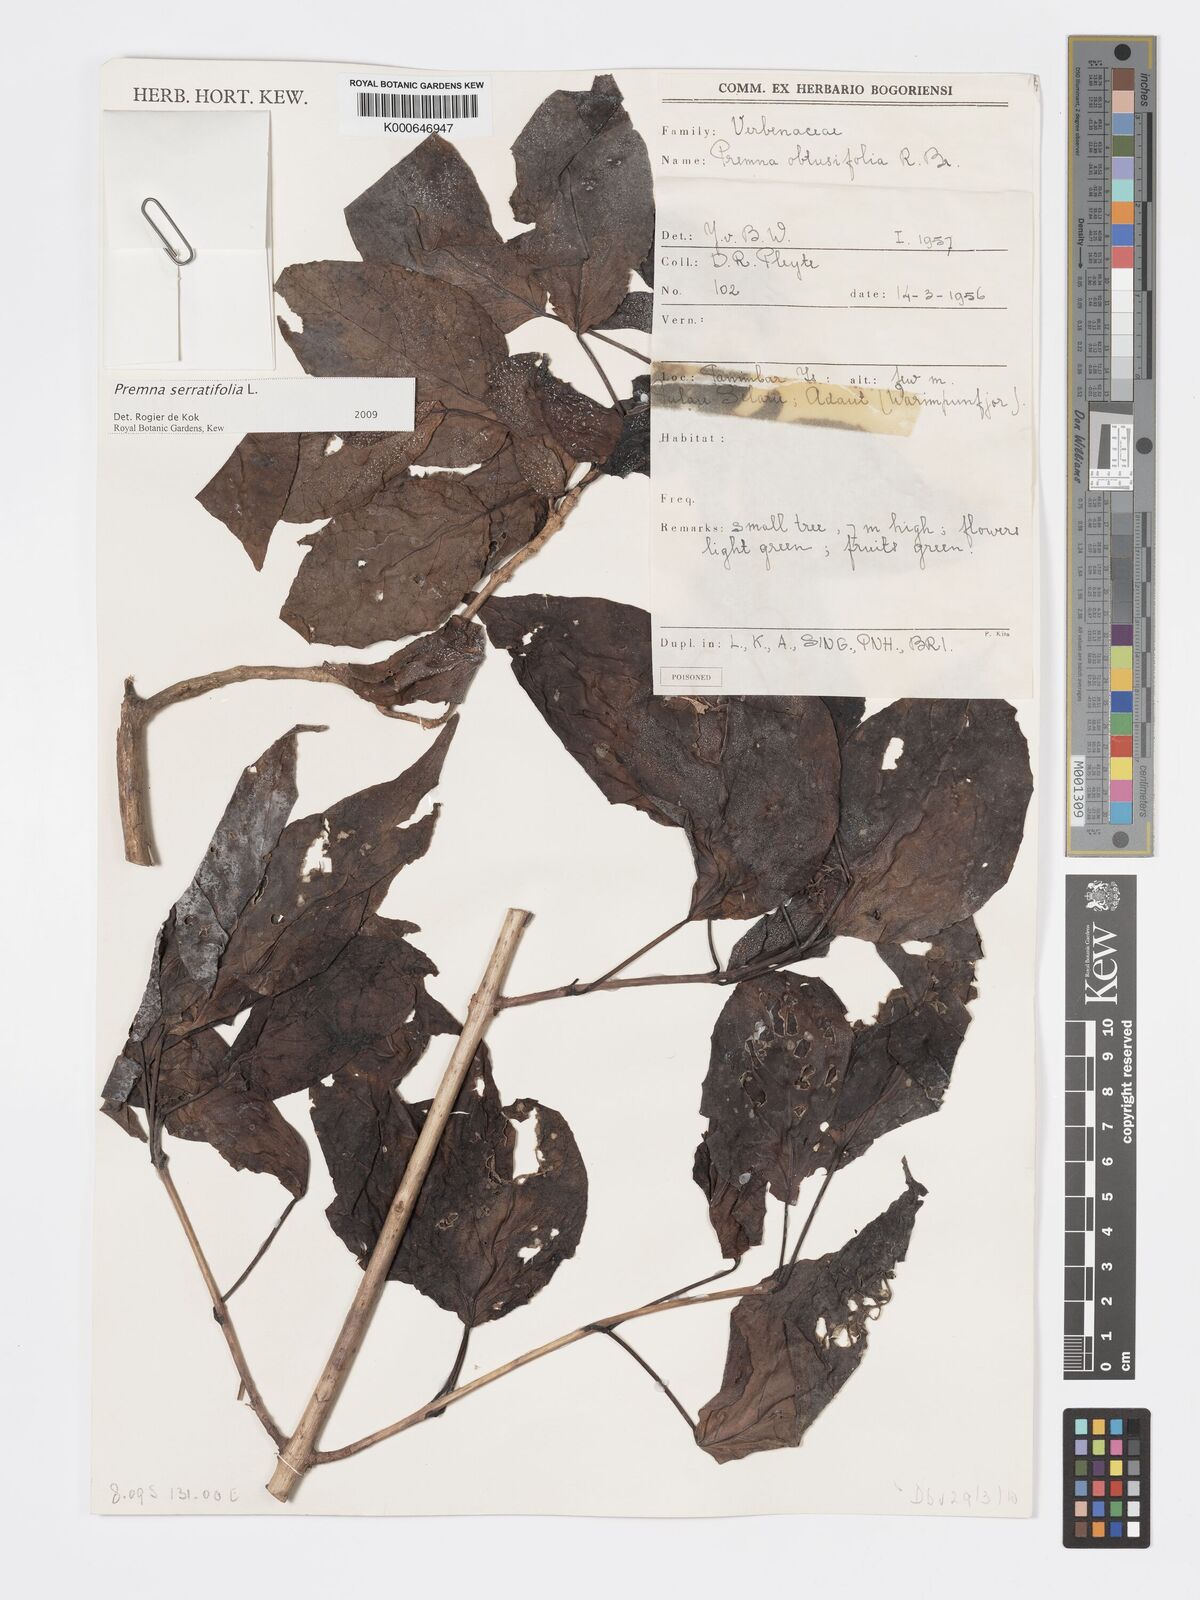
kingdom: Plantae
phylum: Tracheophyta
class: Magnoliopsida
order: Lamiales
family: Lamiaceae
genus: Premna
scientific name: Premna serratifolia
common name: Bastard guelder
